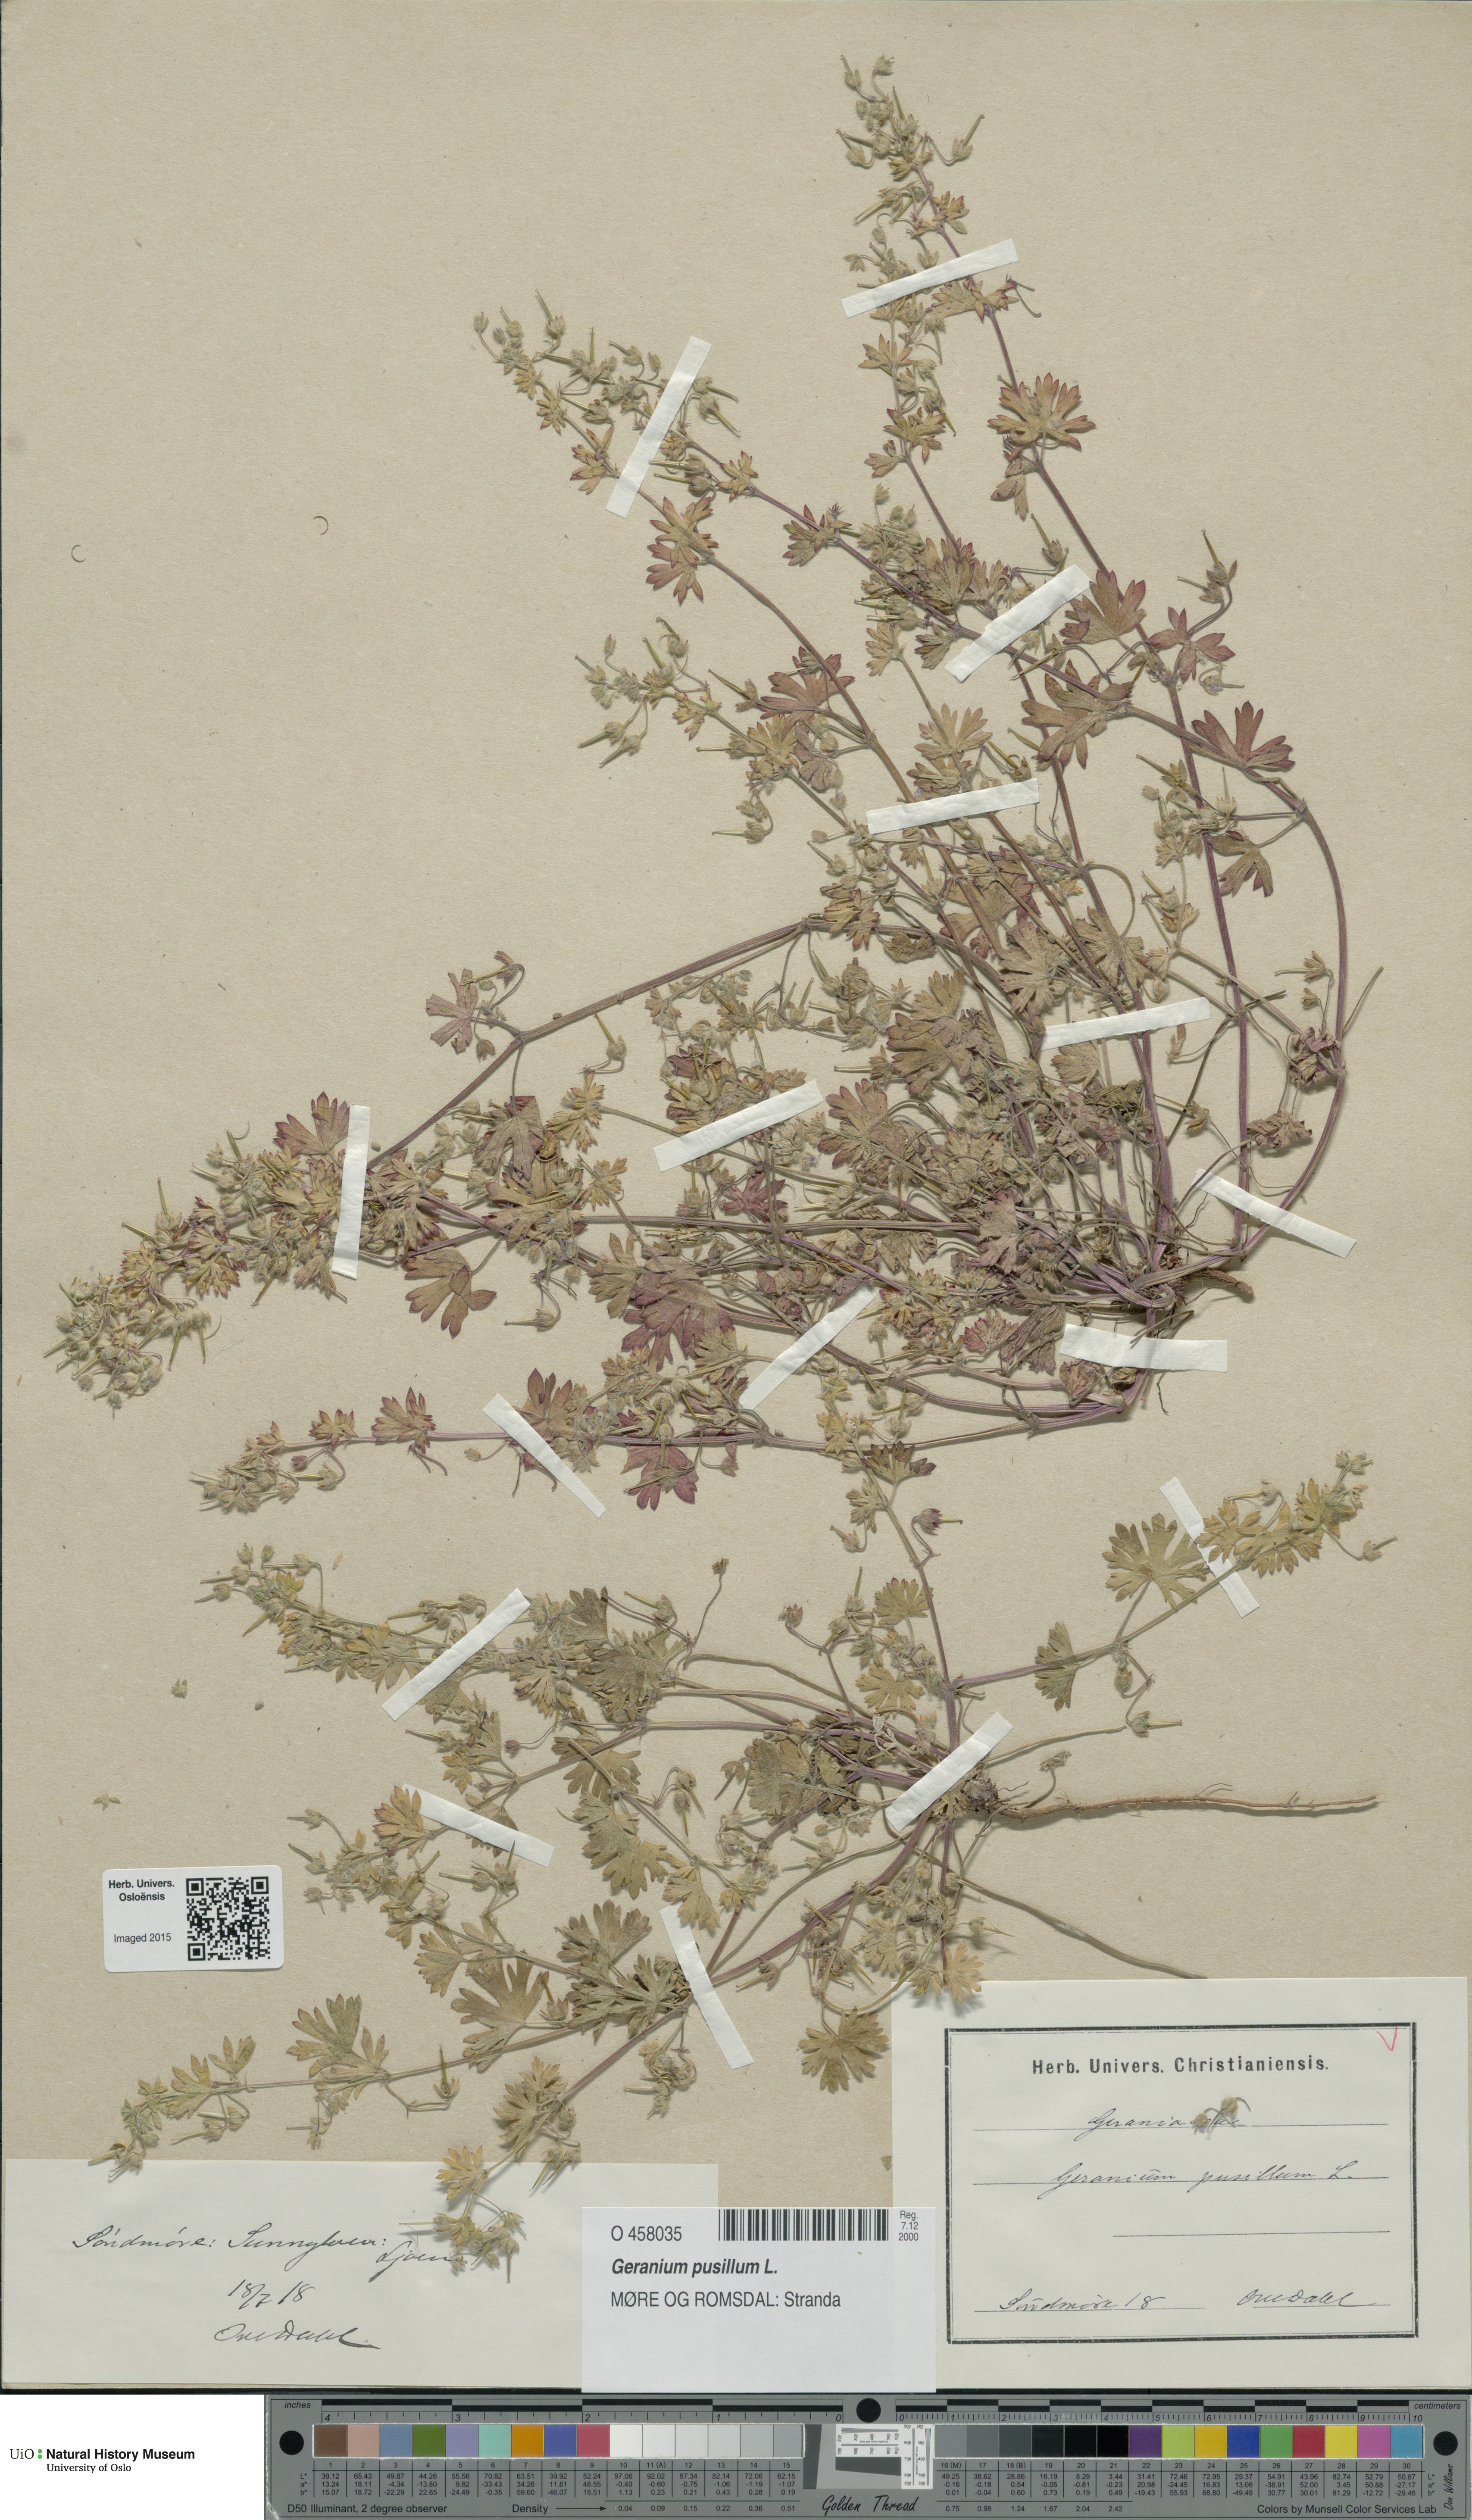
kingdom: Plantae
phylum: Tracheophyta
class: Magnoliopsida
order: Geraniales
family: Geraniaceae
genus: Geranium
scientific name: Geranium pusillum
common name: Small geranium
